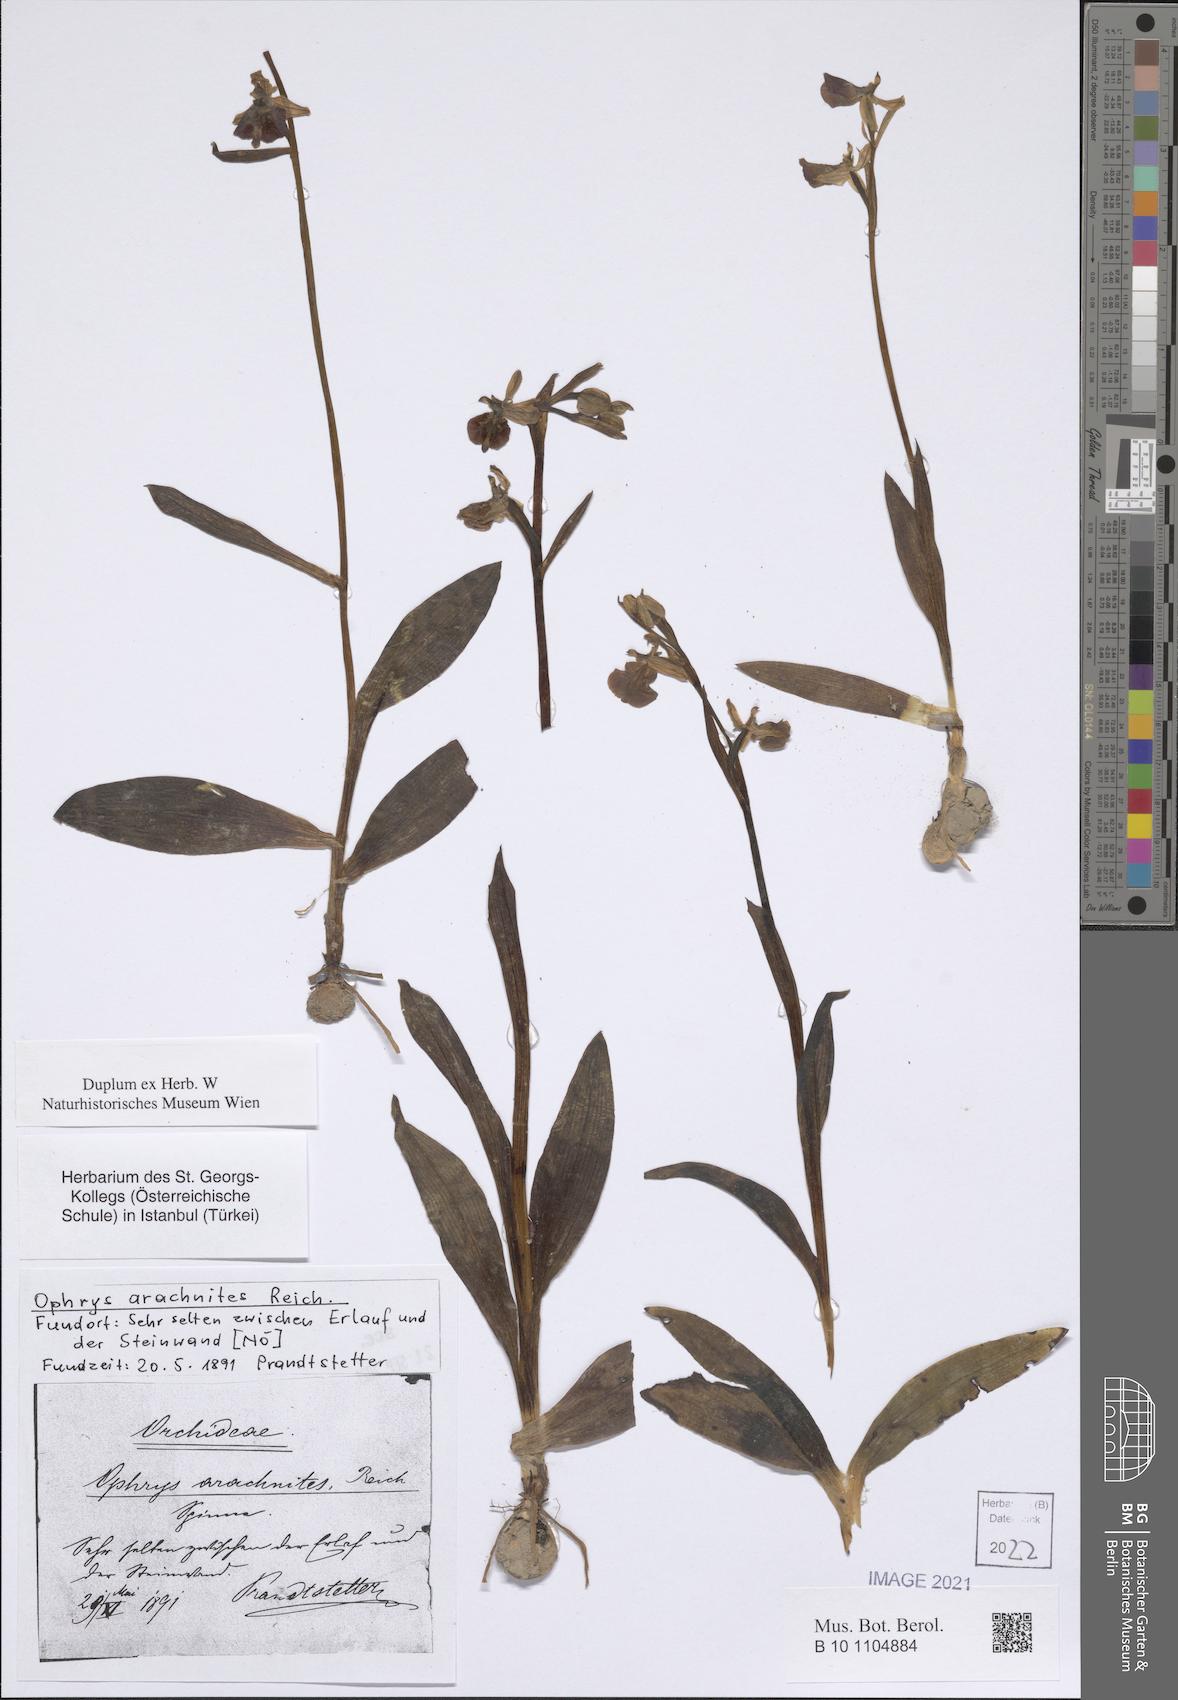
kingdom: Plantae
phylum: Tracheophyta
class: Liliopsida
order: Asparagales
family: Orchidaceae
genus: Ophrys
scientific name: Ophrys apifera
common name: Bee orchid
